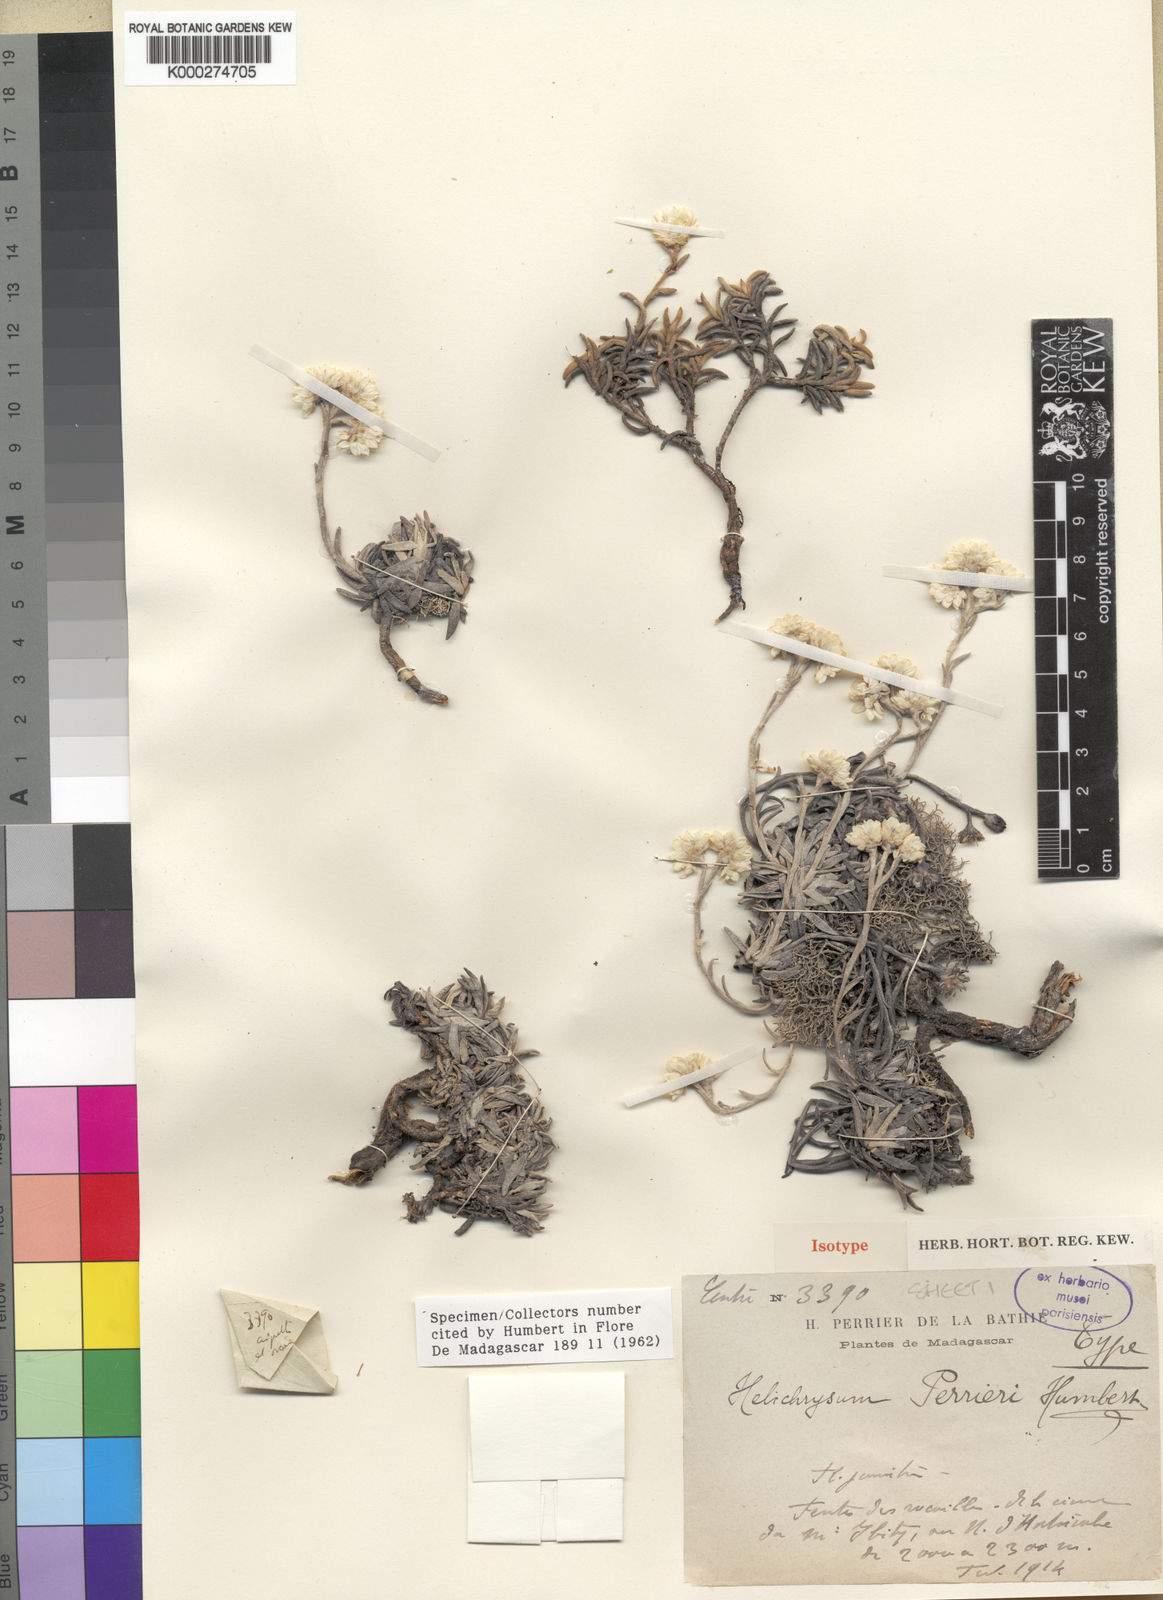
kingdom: Plantae
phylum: Tracheophyta
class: Magnoliopsida
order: Asterales
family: Asteraceae
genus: Helichrysum
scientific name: Helichrysum perrieri
